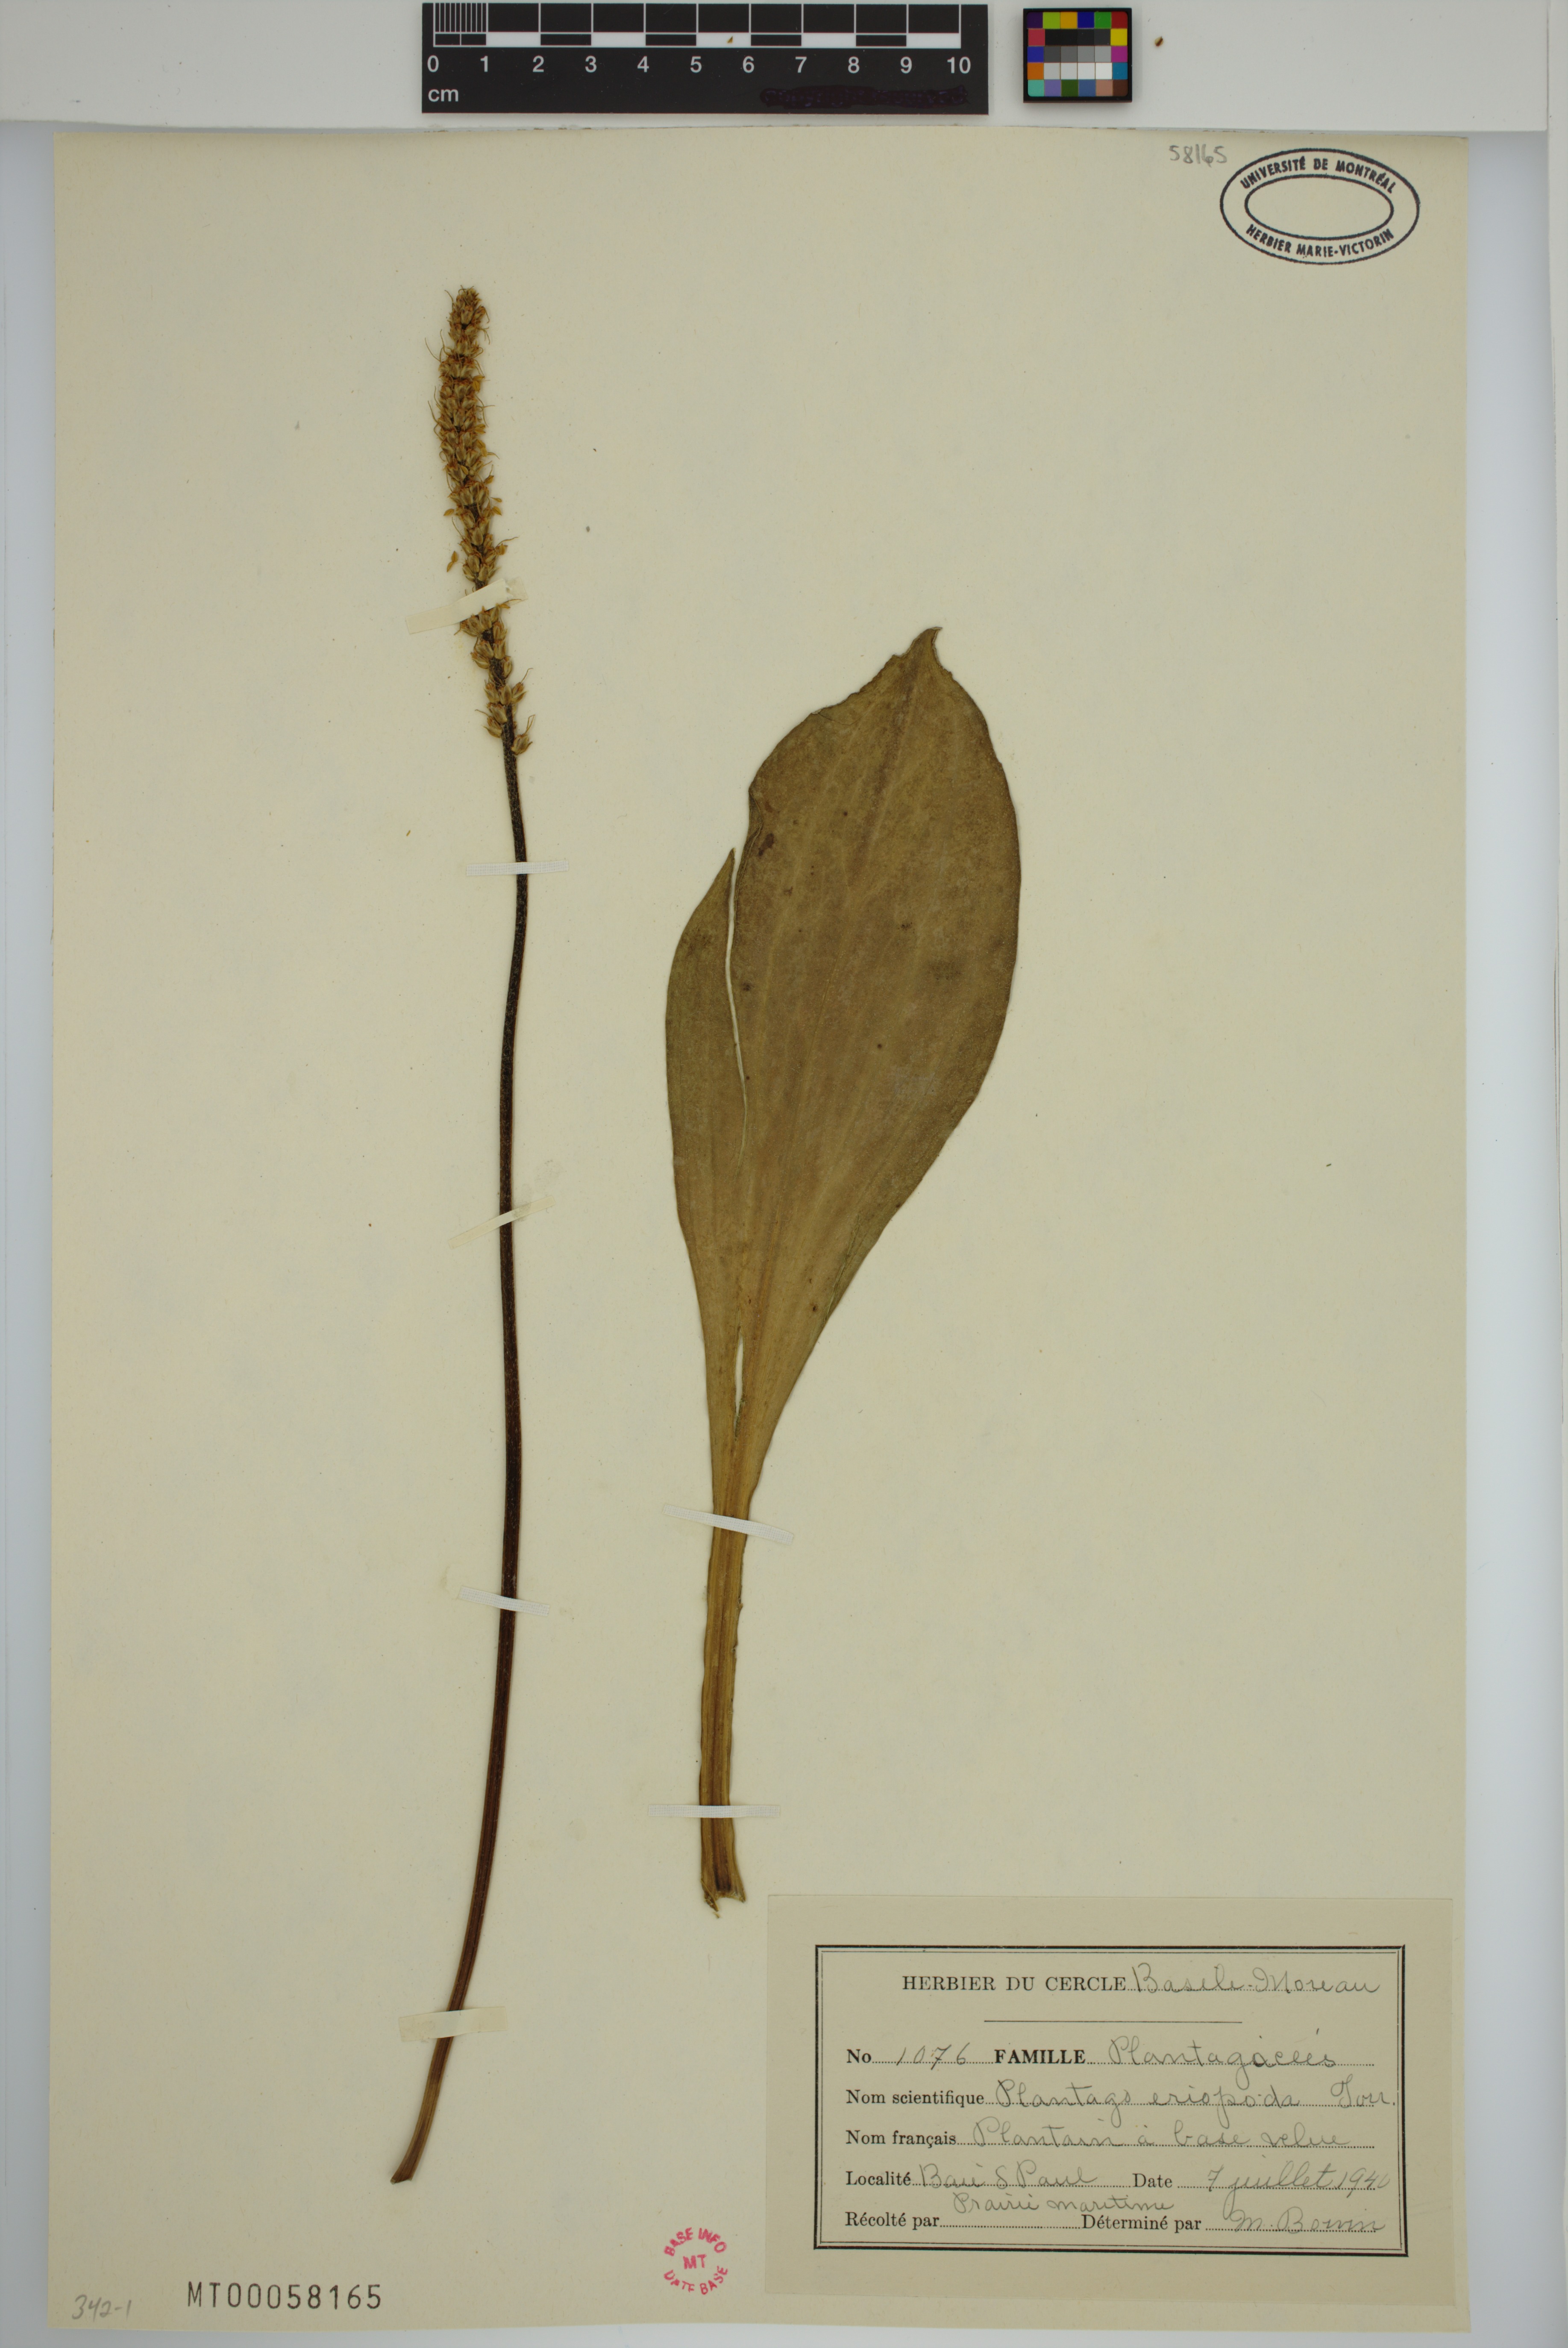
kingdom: Plantae
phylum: Tracheophyta
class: Magnoliopsida
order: Lamiales
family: Plantaginaceae
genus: Plantago
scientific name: Plantago eriopoda
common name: Alkali plantain
